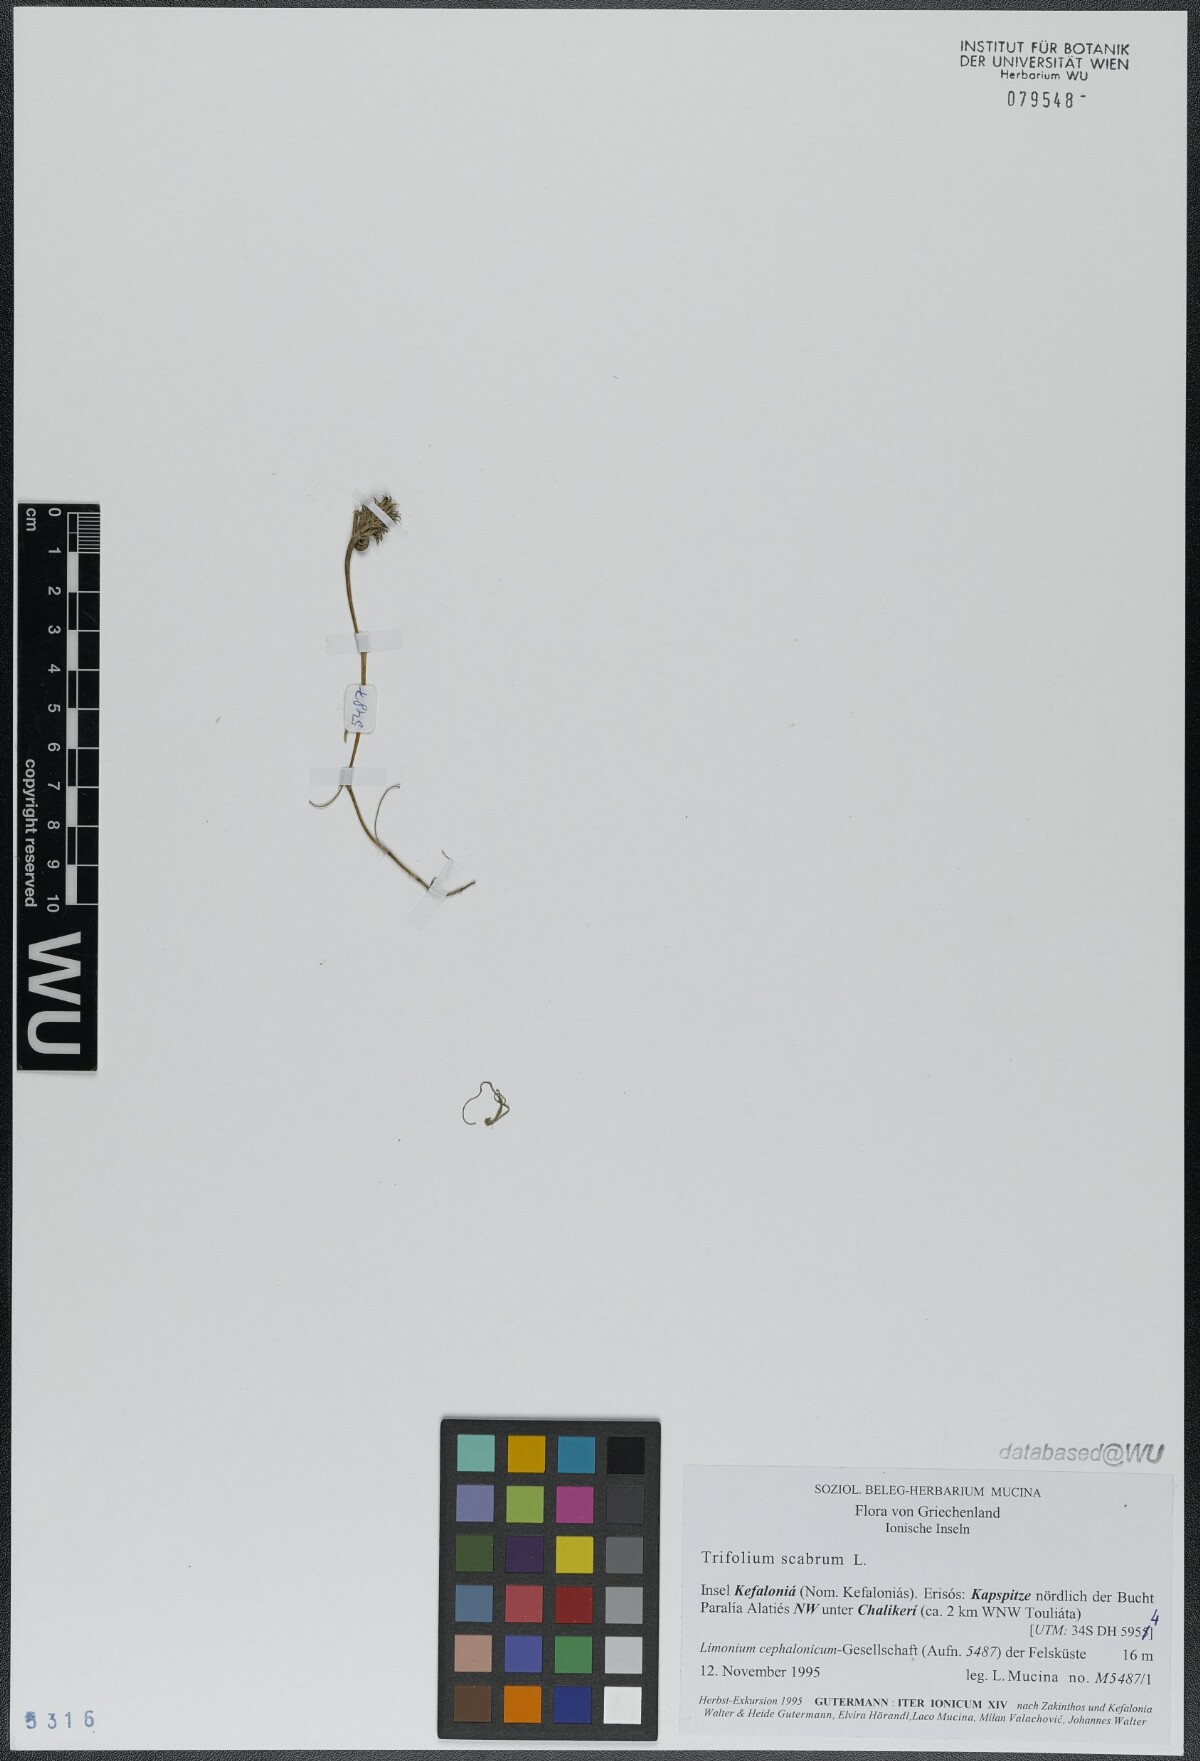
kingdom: Plantae
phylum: Tracheophyta
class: Magnoliopsida
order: Fabales
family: Fabaceae
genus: Trifolium
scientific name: Trifolium scabrum
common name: Rough clover
